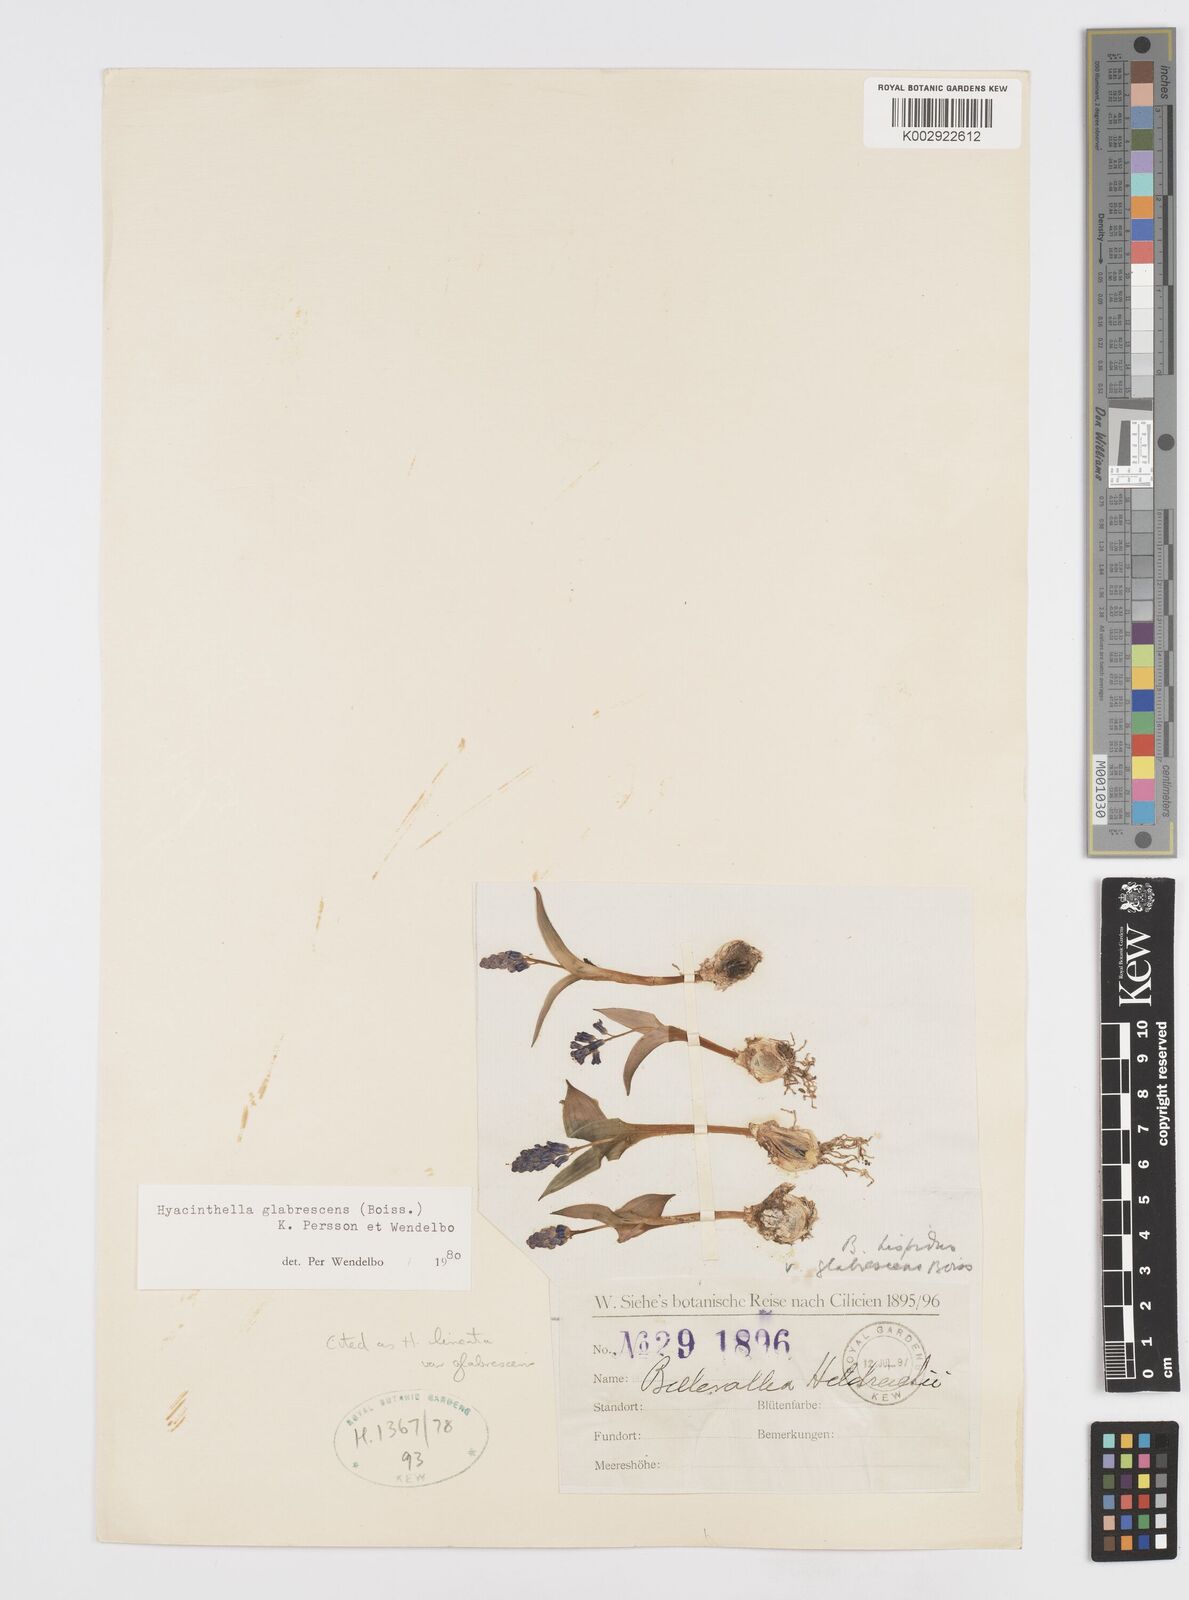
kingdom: Plantae
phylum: Tracheophyta
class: Liliopsida
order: Asparagales
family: Asparagaceae
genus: Hyacinthella
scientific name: Hyacinthella glabrescens
